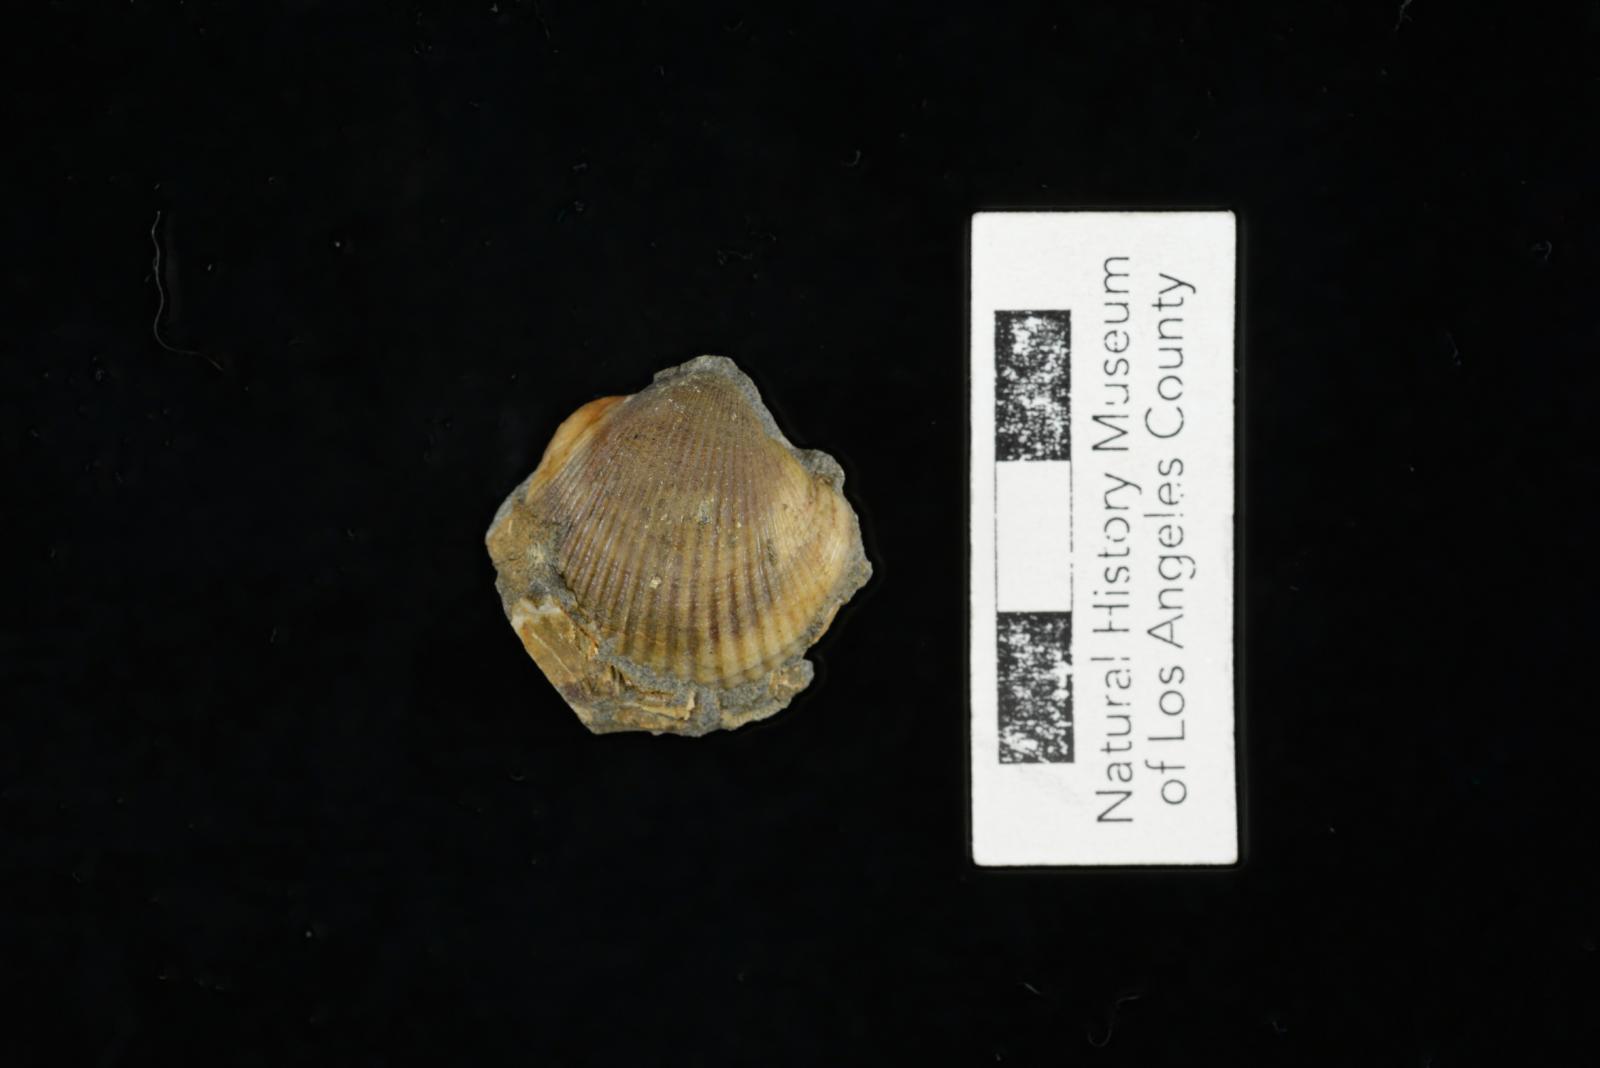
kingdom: Animalia
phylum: Mollusca
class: Bivalvia
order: Arcida
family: Glycymerididae
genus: Glycymerita
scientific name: Glycymerita Axinaea veatchii
